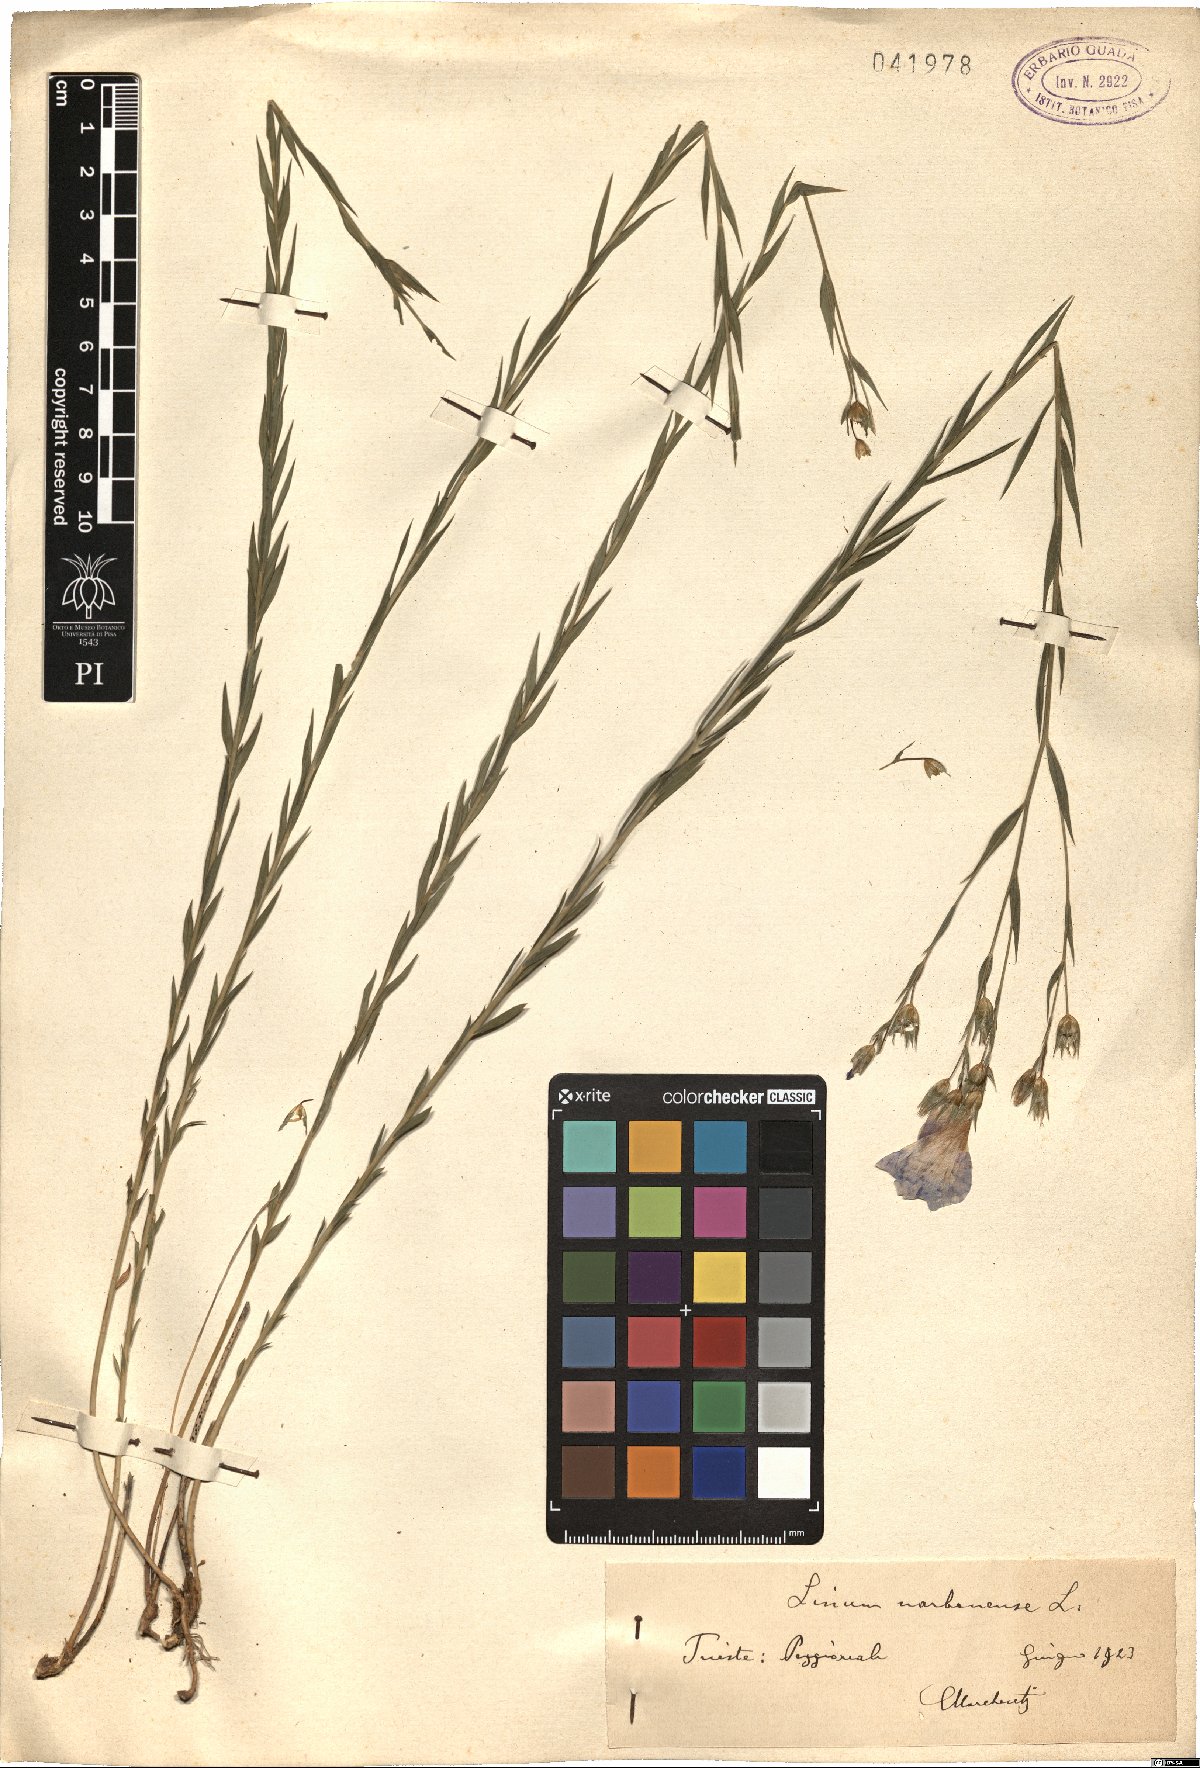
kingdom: Plantae
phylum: Tracheophyta
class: Magnoliopsida
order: Malpighiales
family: Linaceae
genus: Linum
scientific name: Linum narbonense
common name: Flax
